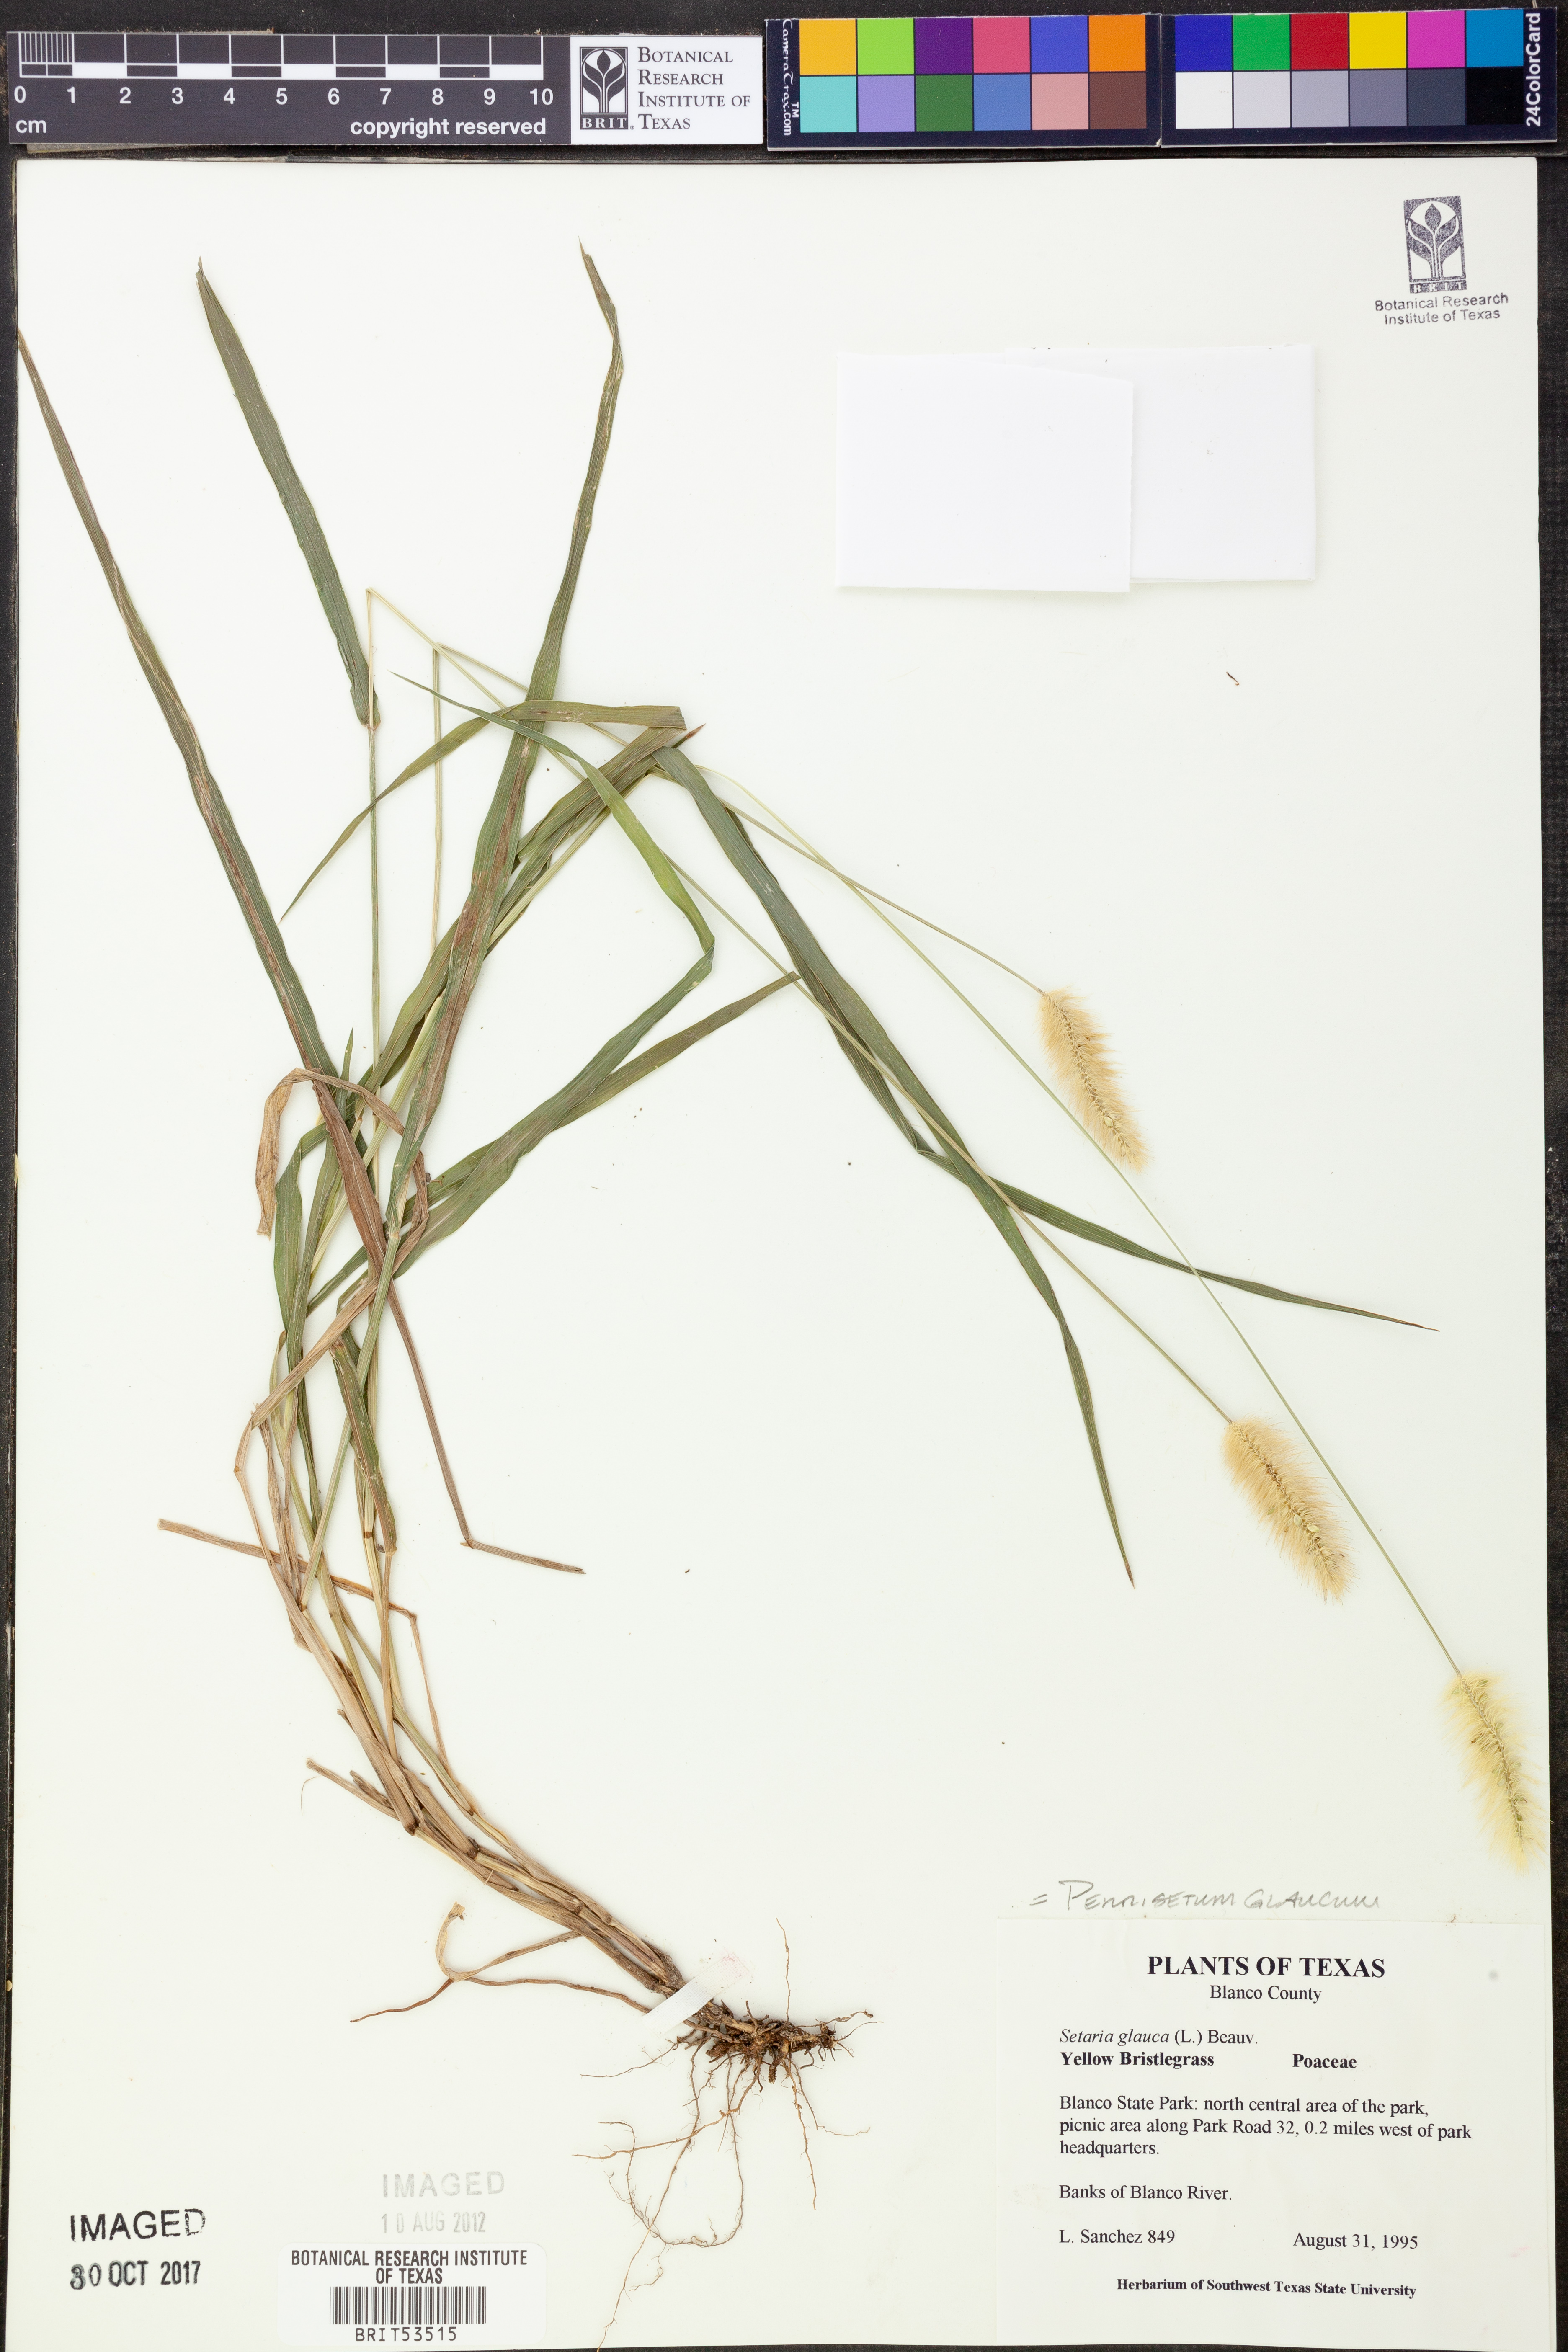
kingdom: Plantae
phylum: Tracheophyta
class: Liliopsida
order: Poales
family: Poaceae
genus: Cenchrus
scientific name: Cenchrus americanus
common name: Pearl millet
